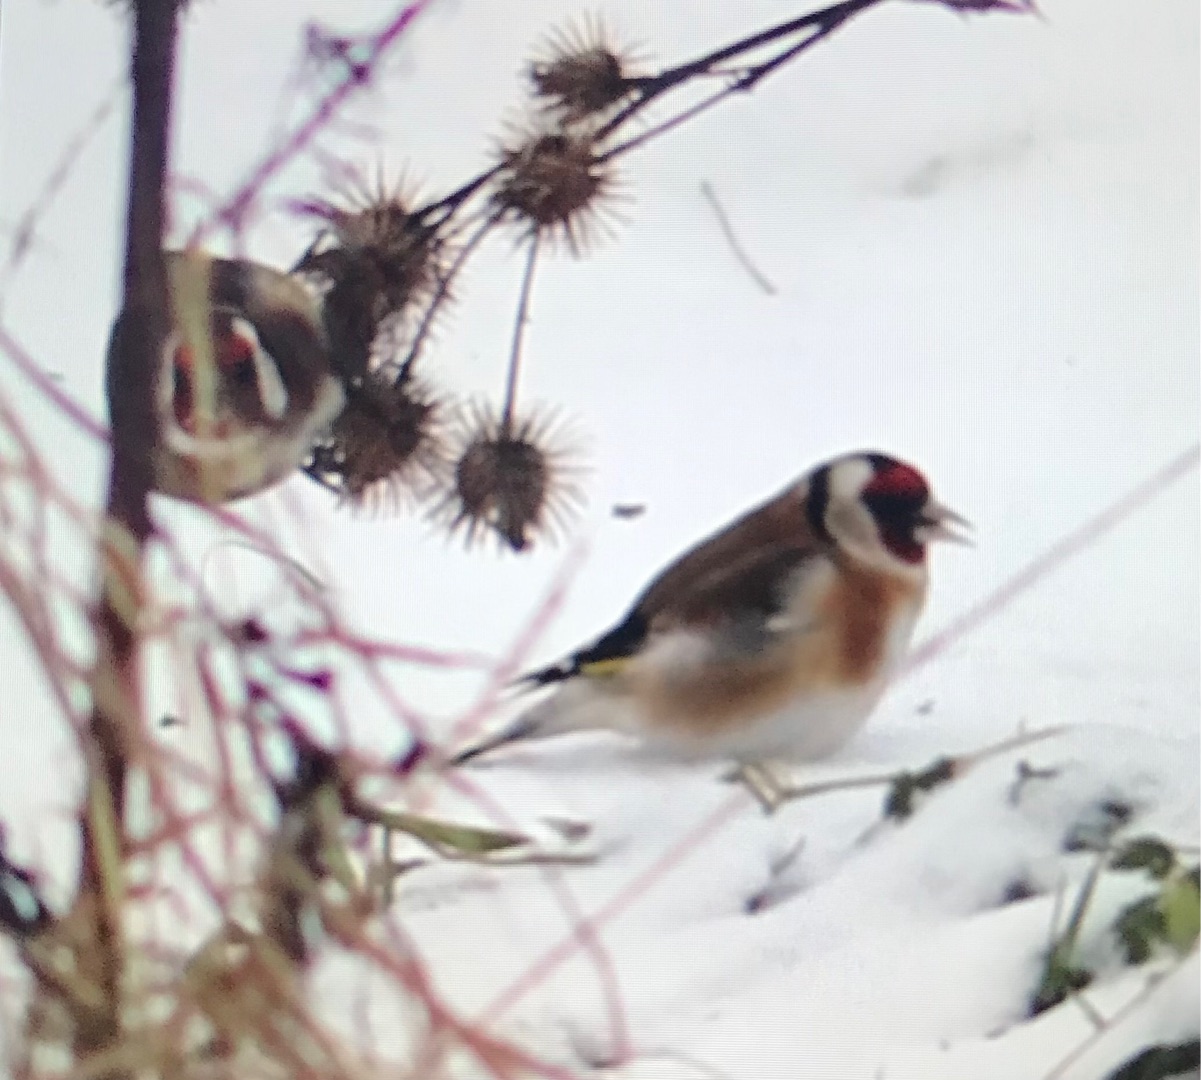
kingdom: Animalia
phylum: Chordata
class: Aves
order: Passeriformes
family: Fringillidae
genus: Carduelis
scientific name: Carduelis carduelis
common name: Stillits
